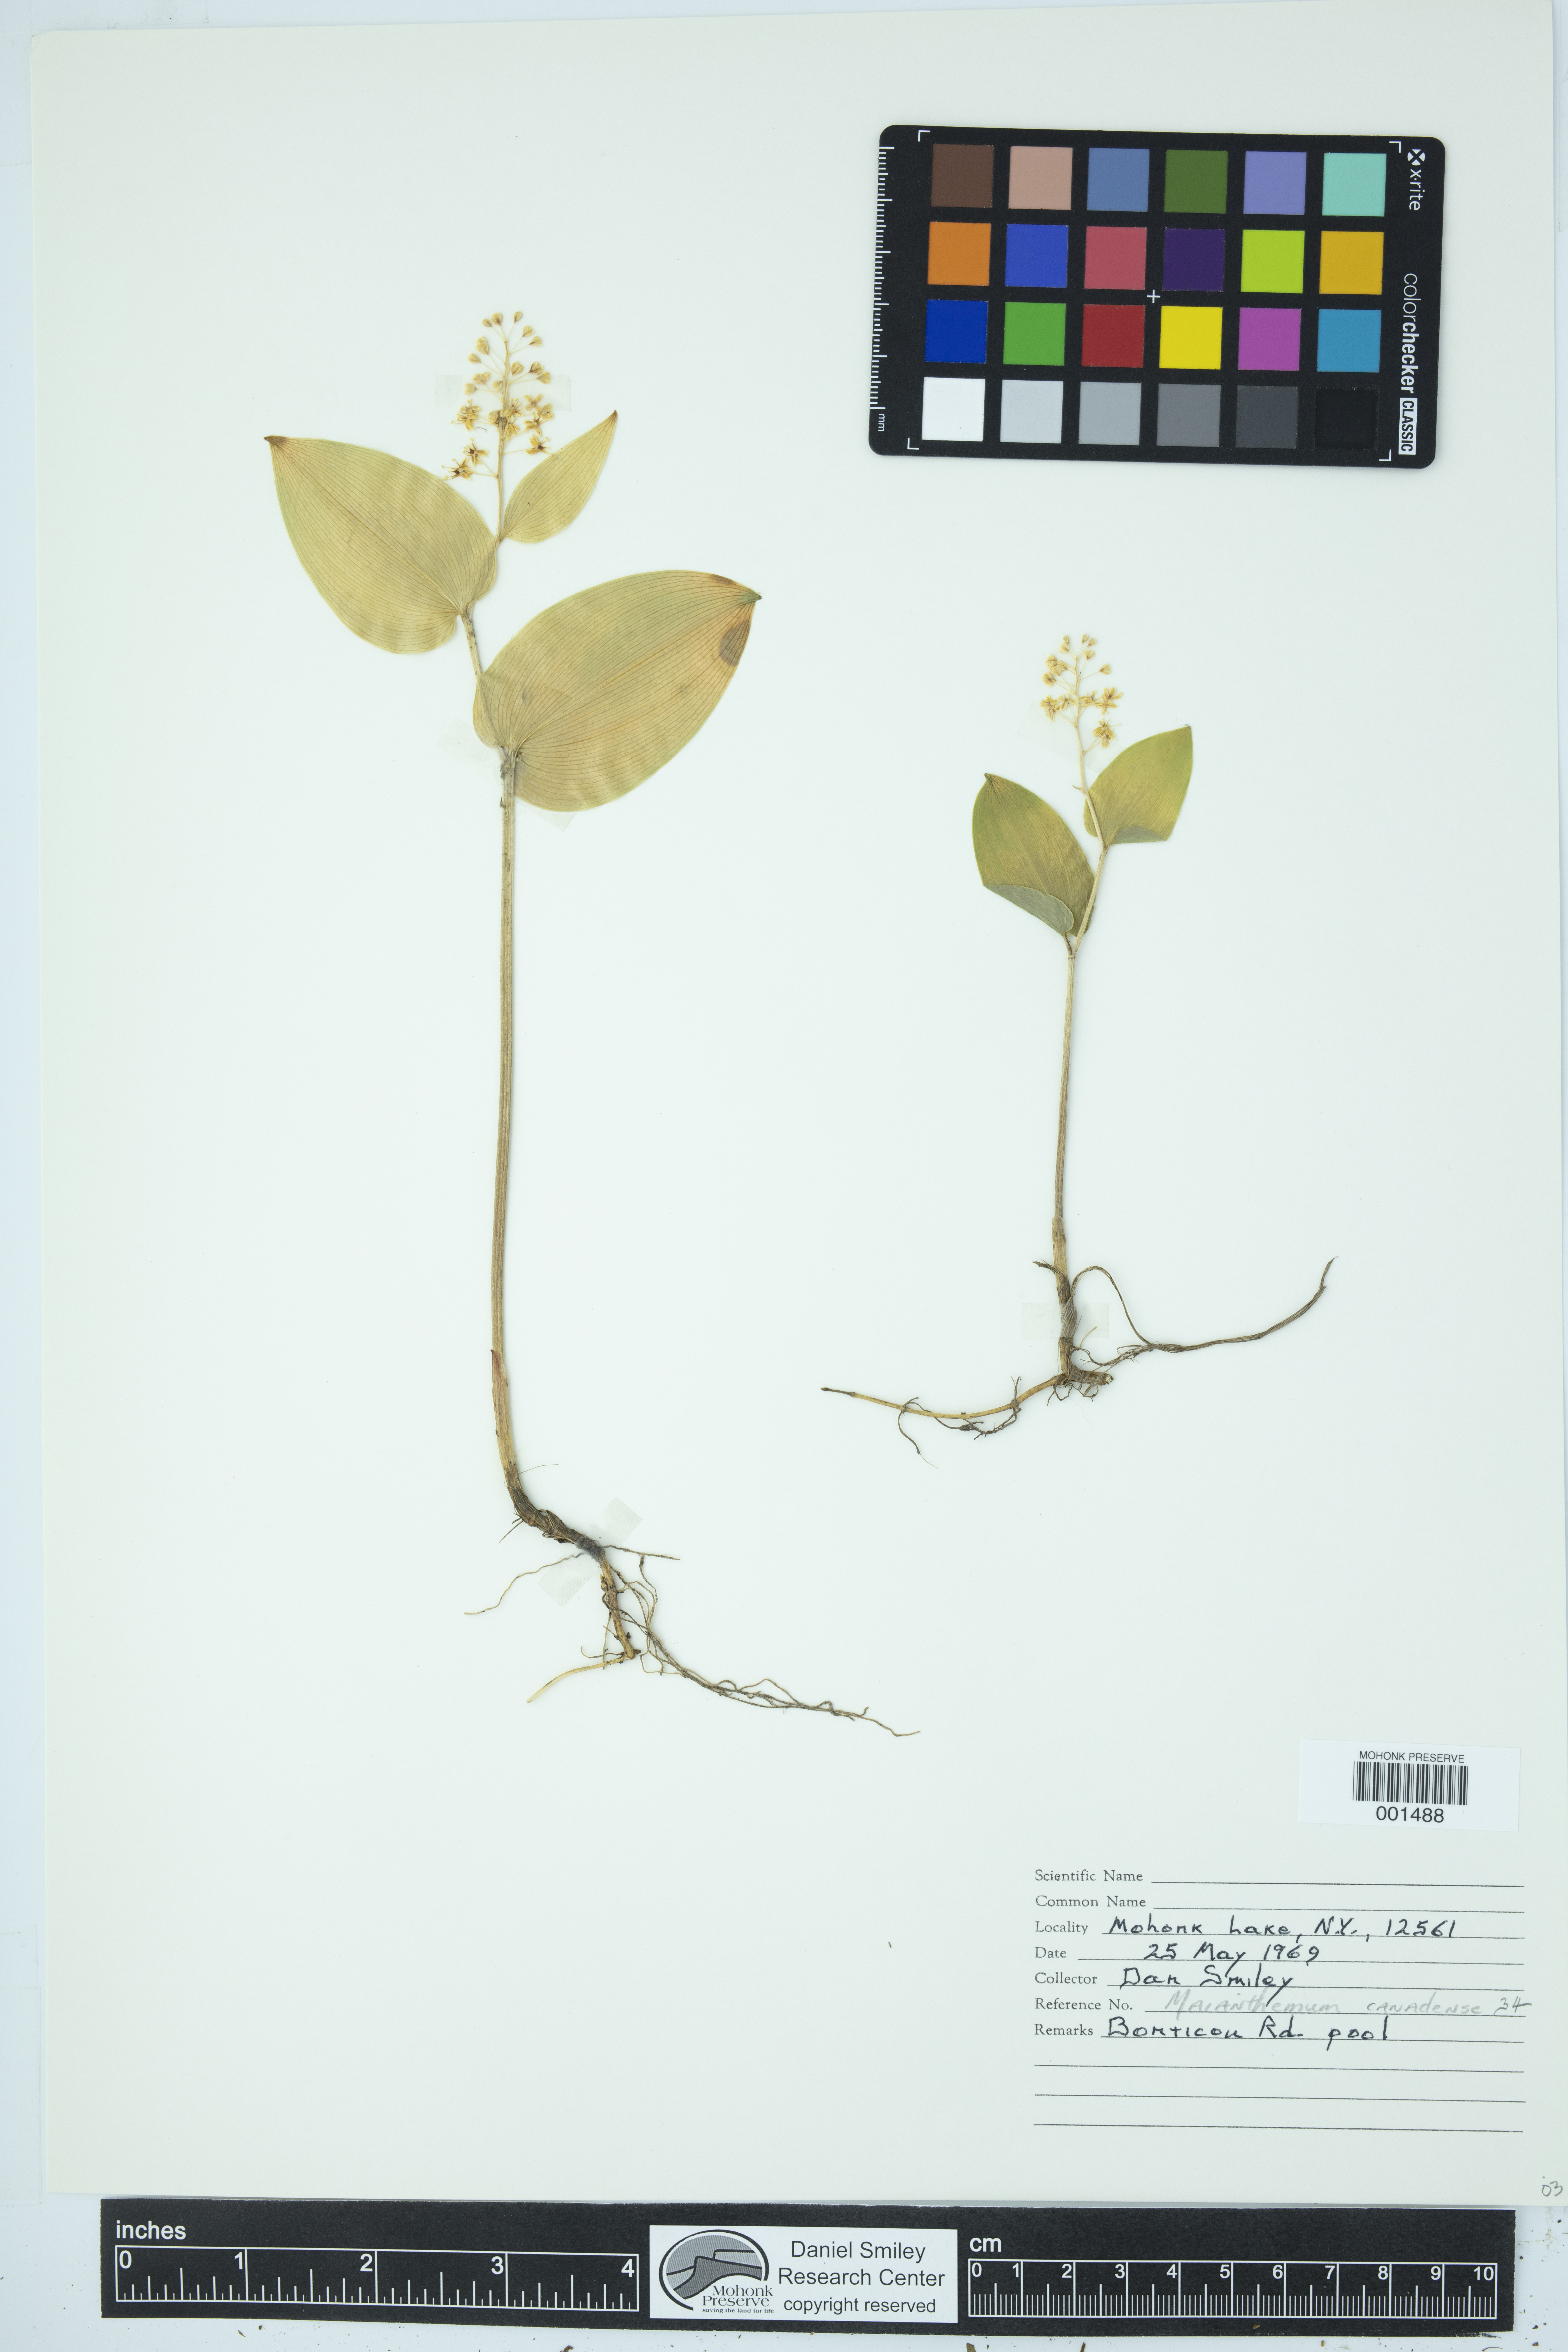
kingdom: Plantae
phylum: Tracheophyta
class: Liliopsida
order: Asparagales
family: Asparagaceae
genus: Maianthemum
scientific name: Maianthemum canadense
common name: False lily-of-the-valley
